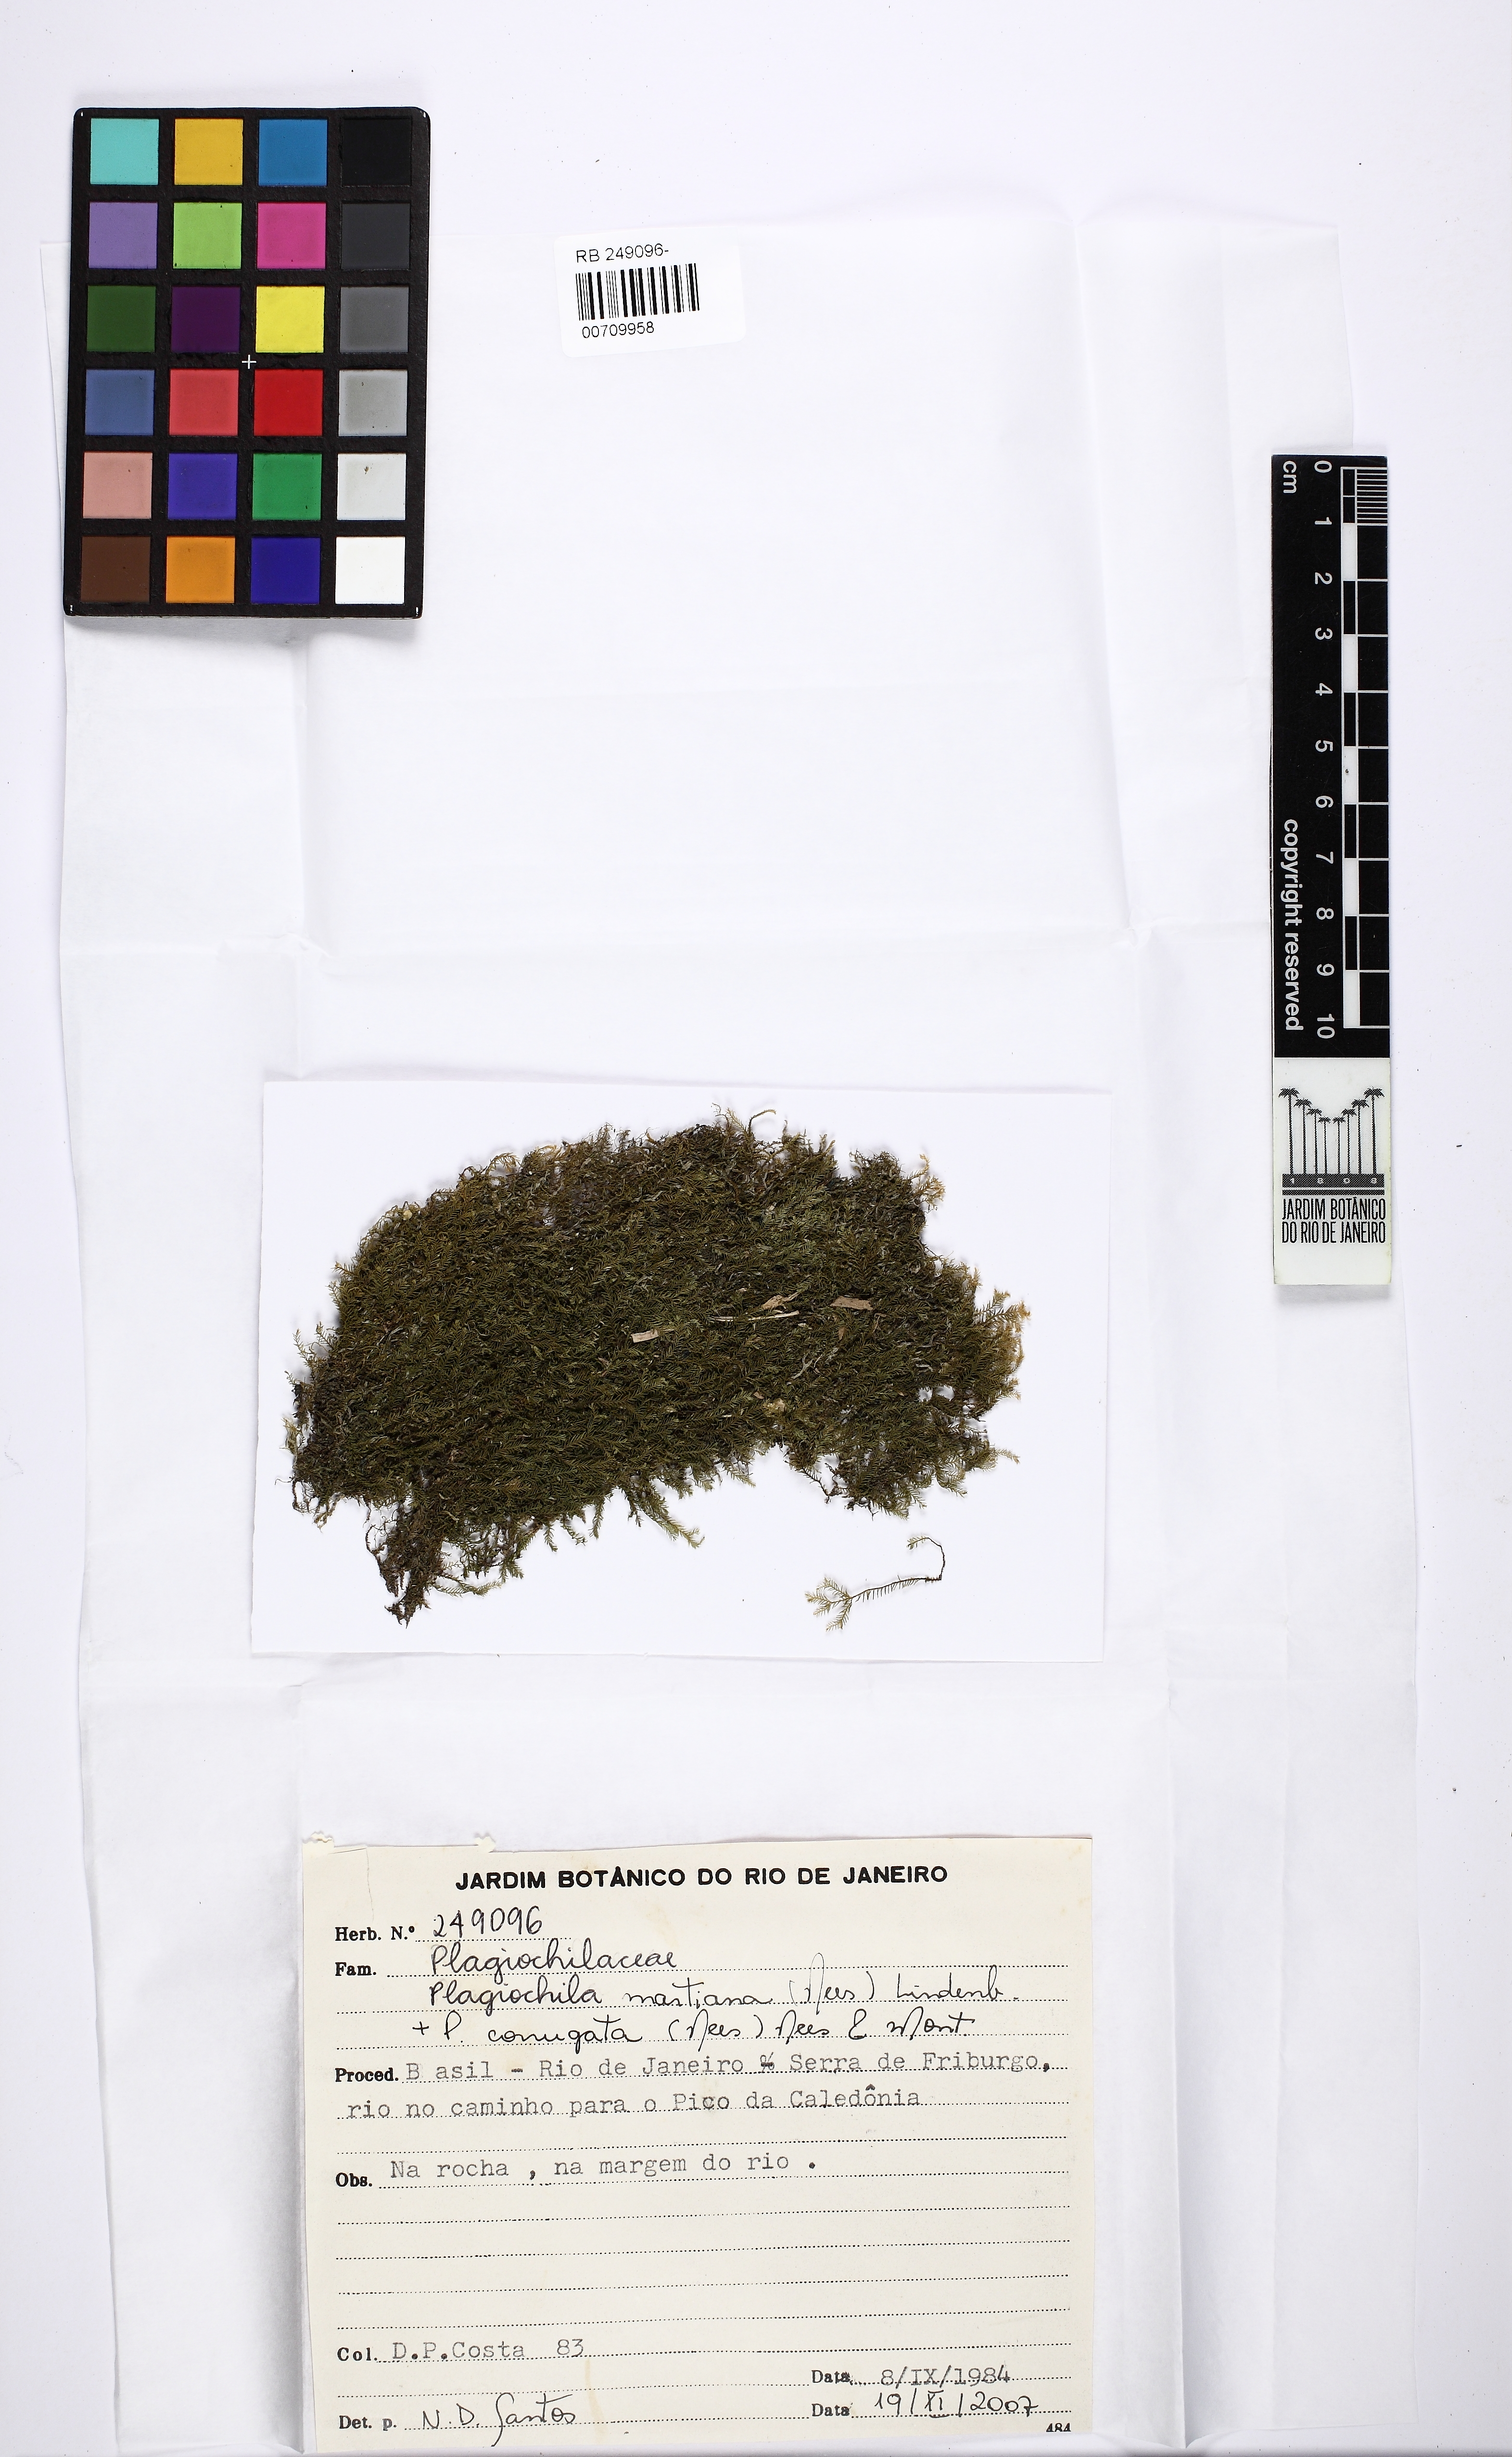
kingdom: Plantae
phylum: Marchantiophyta
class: Jungermanniopsida
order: Jungermanniales
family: Plagiochilaceae
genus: Plagiochila
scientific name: Plagiochila patula
